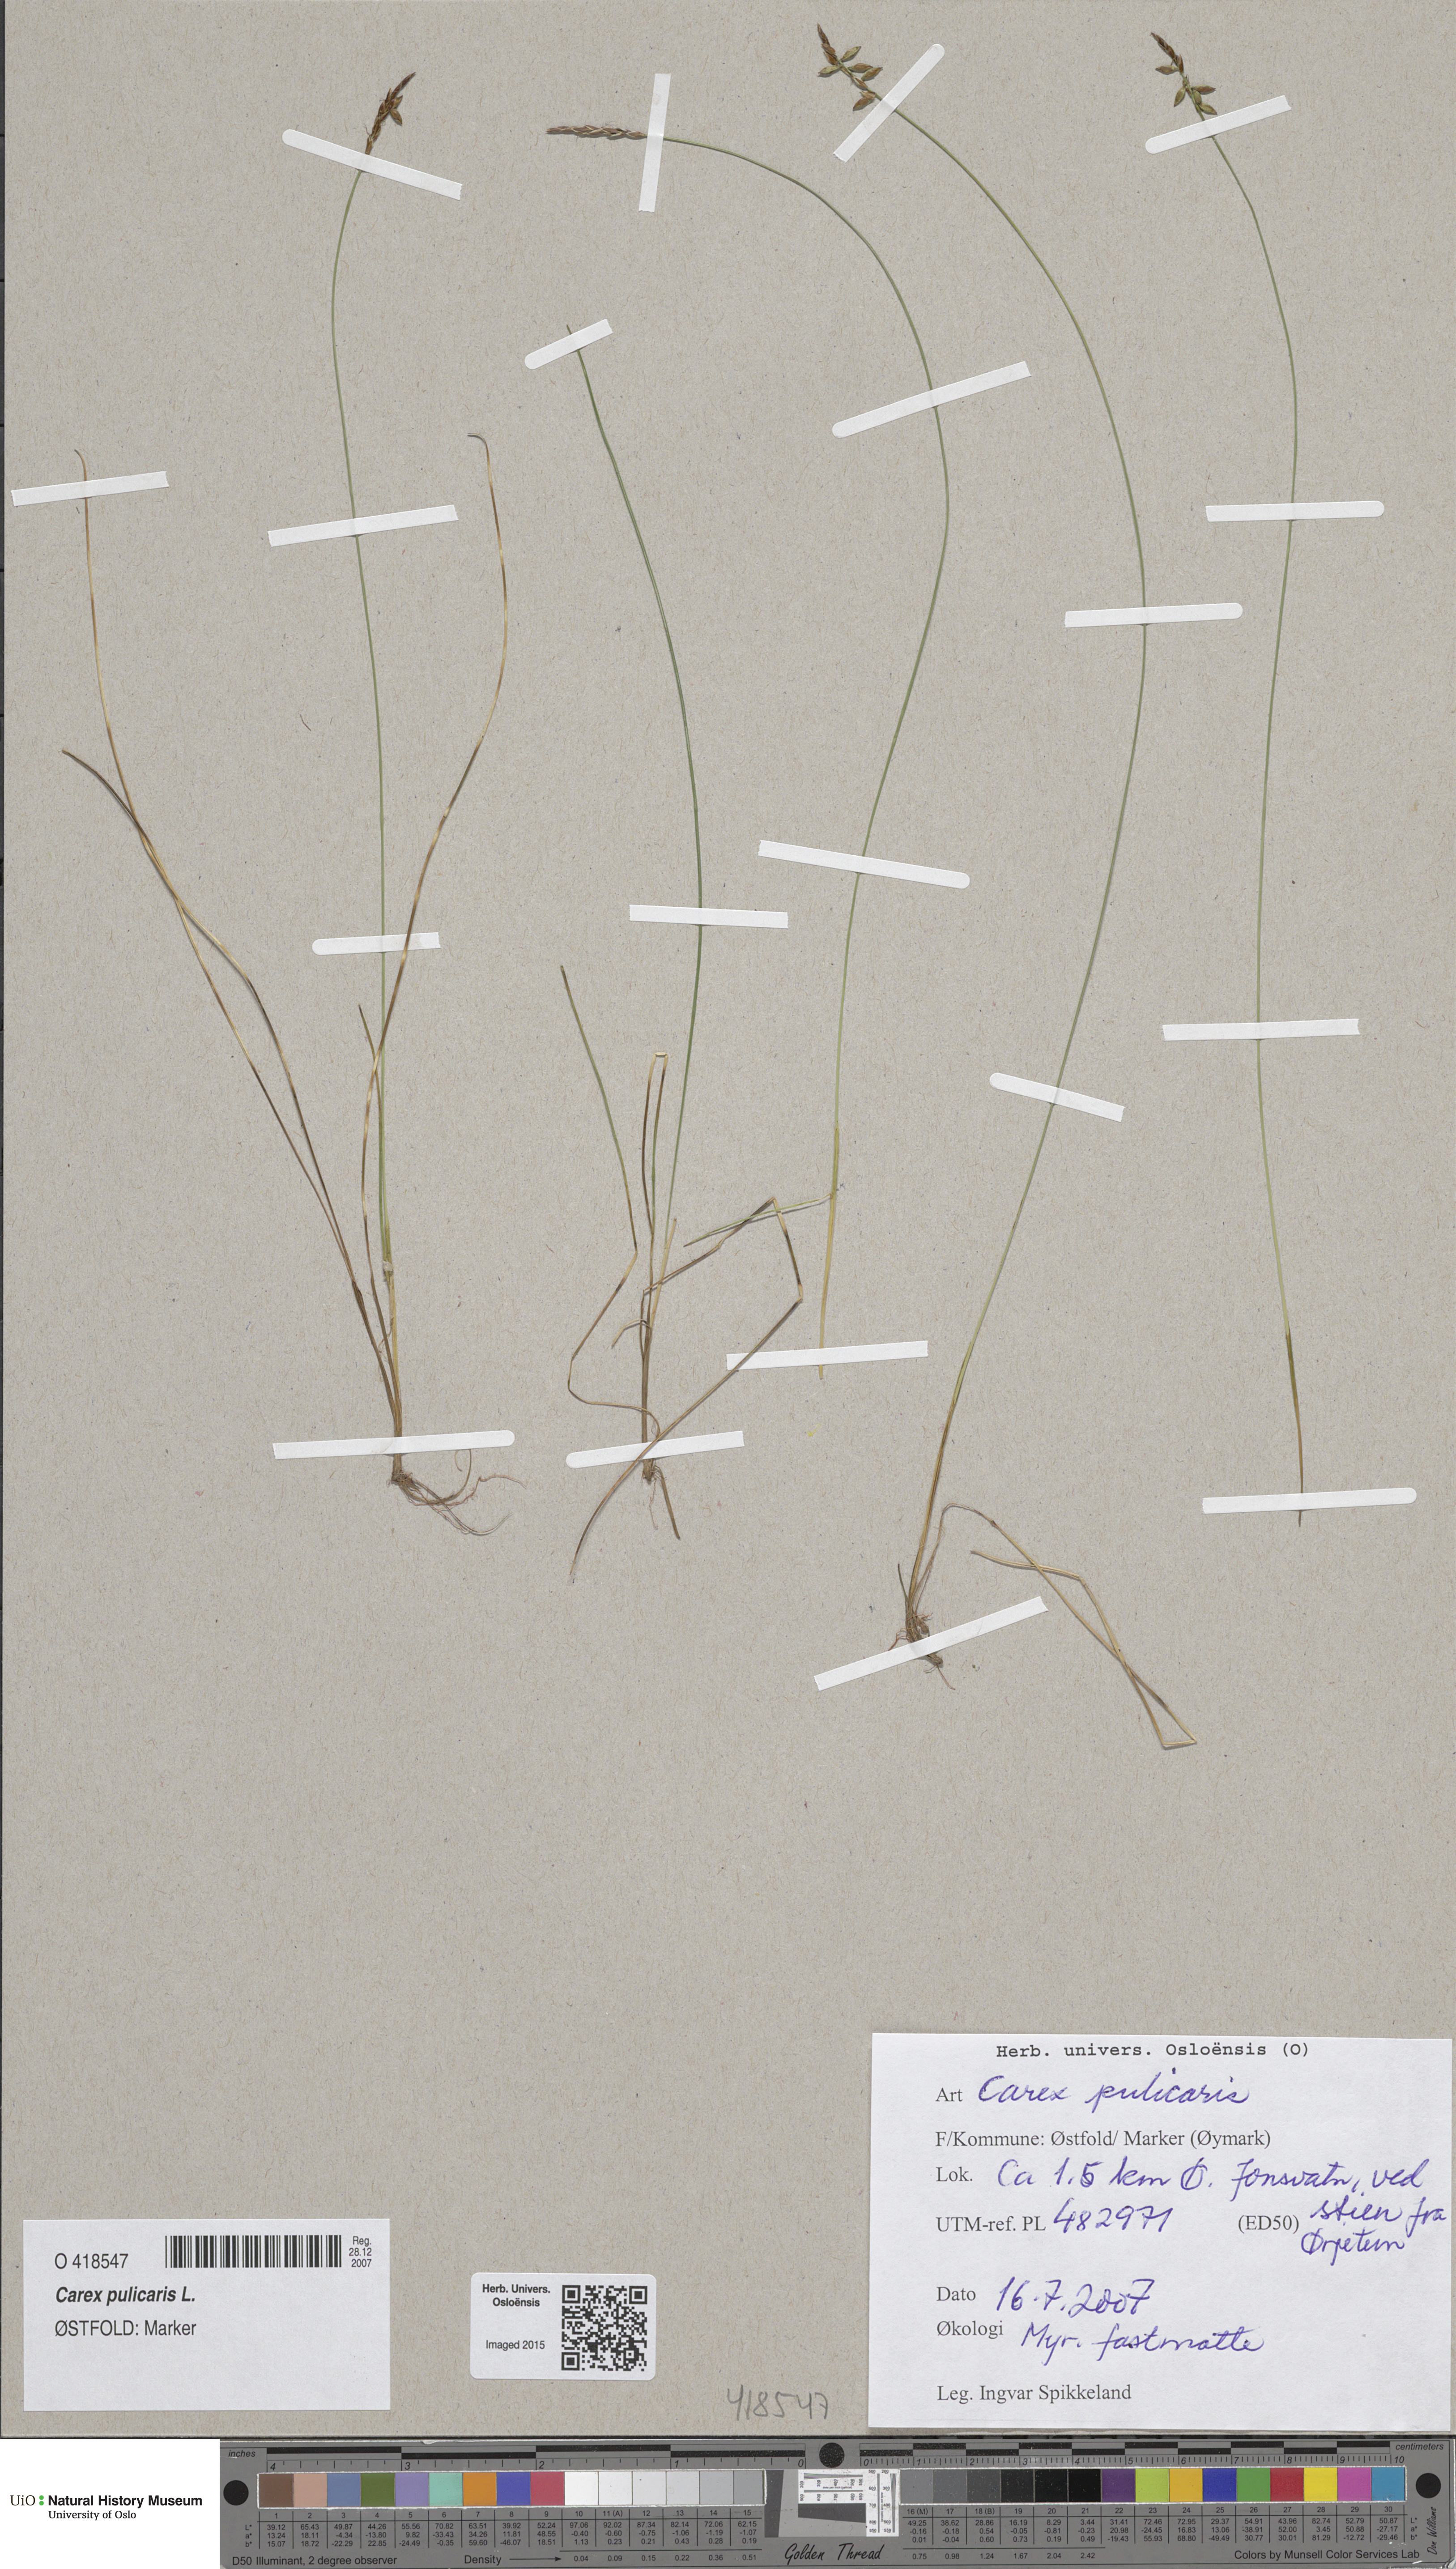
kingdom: Plantae
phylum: Tracheophyta
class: Liliopsida
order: Poales
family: Cyperaceae
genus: Carex
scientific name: Carex pulicaris
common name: Flea sedge
